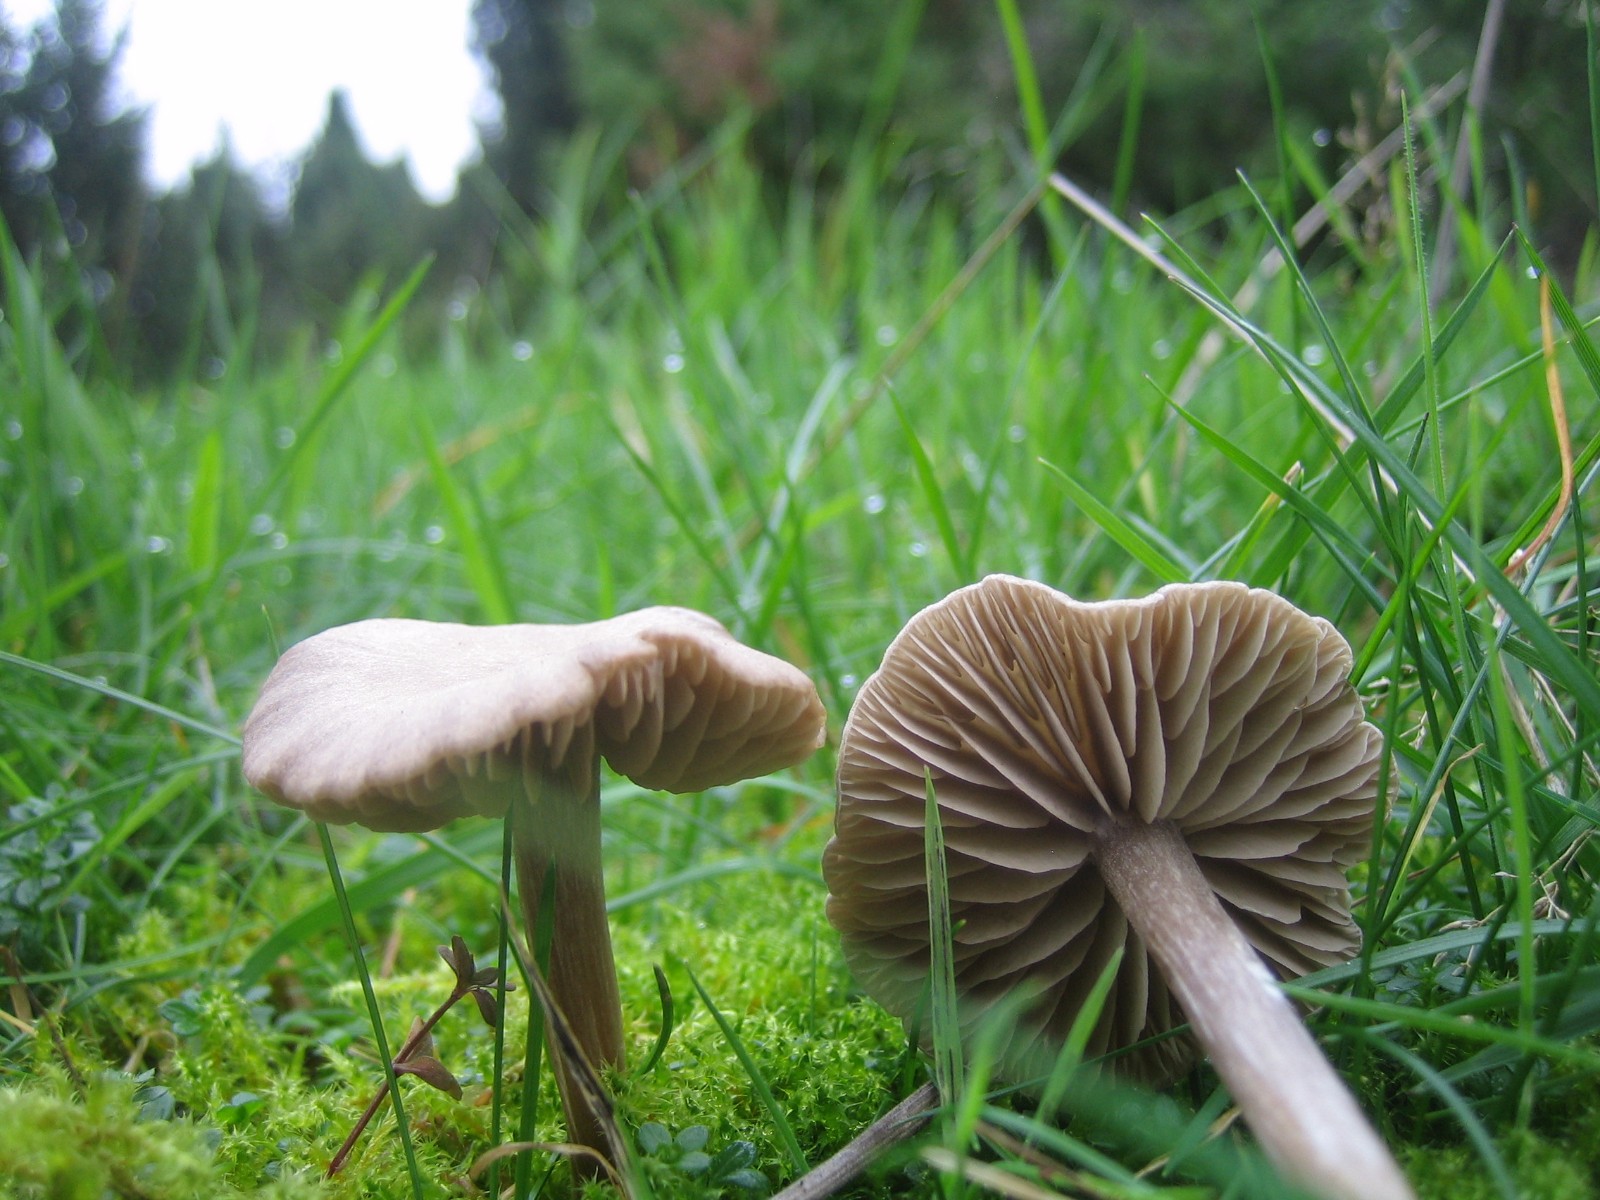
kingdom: Fungi
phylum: Basidiomycota
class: Agaricomycetes
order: Agaricales
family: Entolomataceae
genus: Entoloma
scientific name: Entoloma
